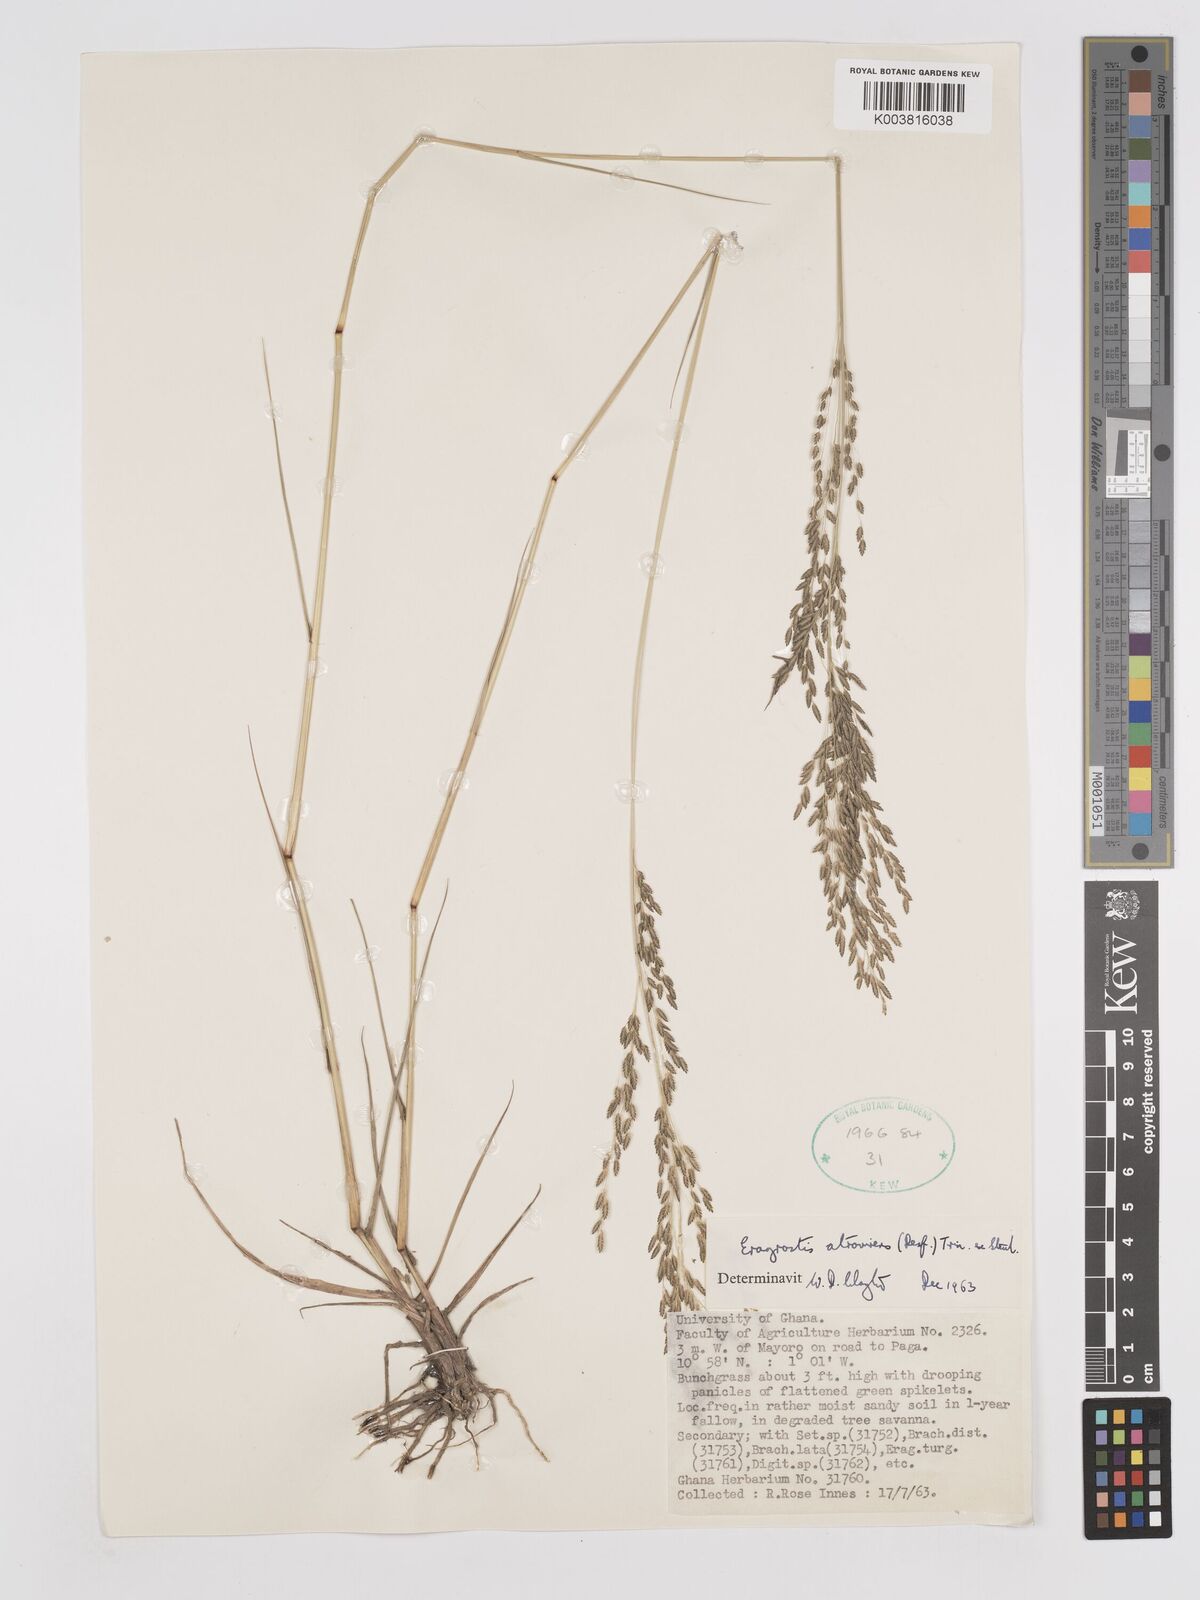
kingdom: Plantae
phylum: Tracheophyta
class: Liliopsida
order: Poales
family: Poaceae
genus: Eragrostis
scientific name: Eragrostis atrovirens
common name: Thalia lovegrass
